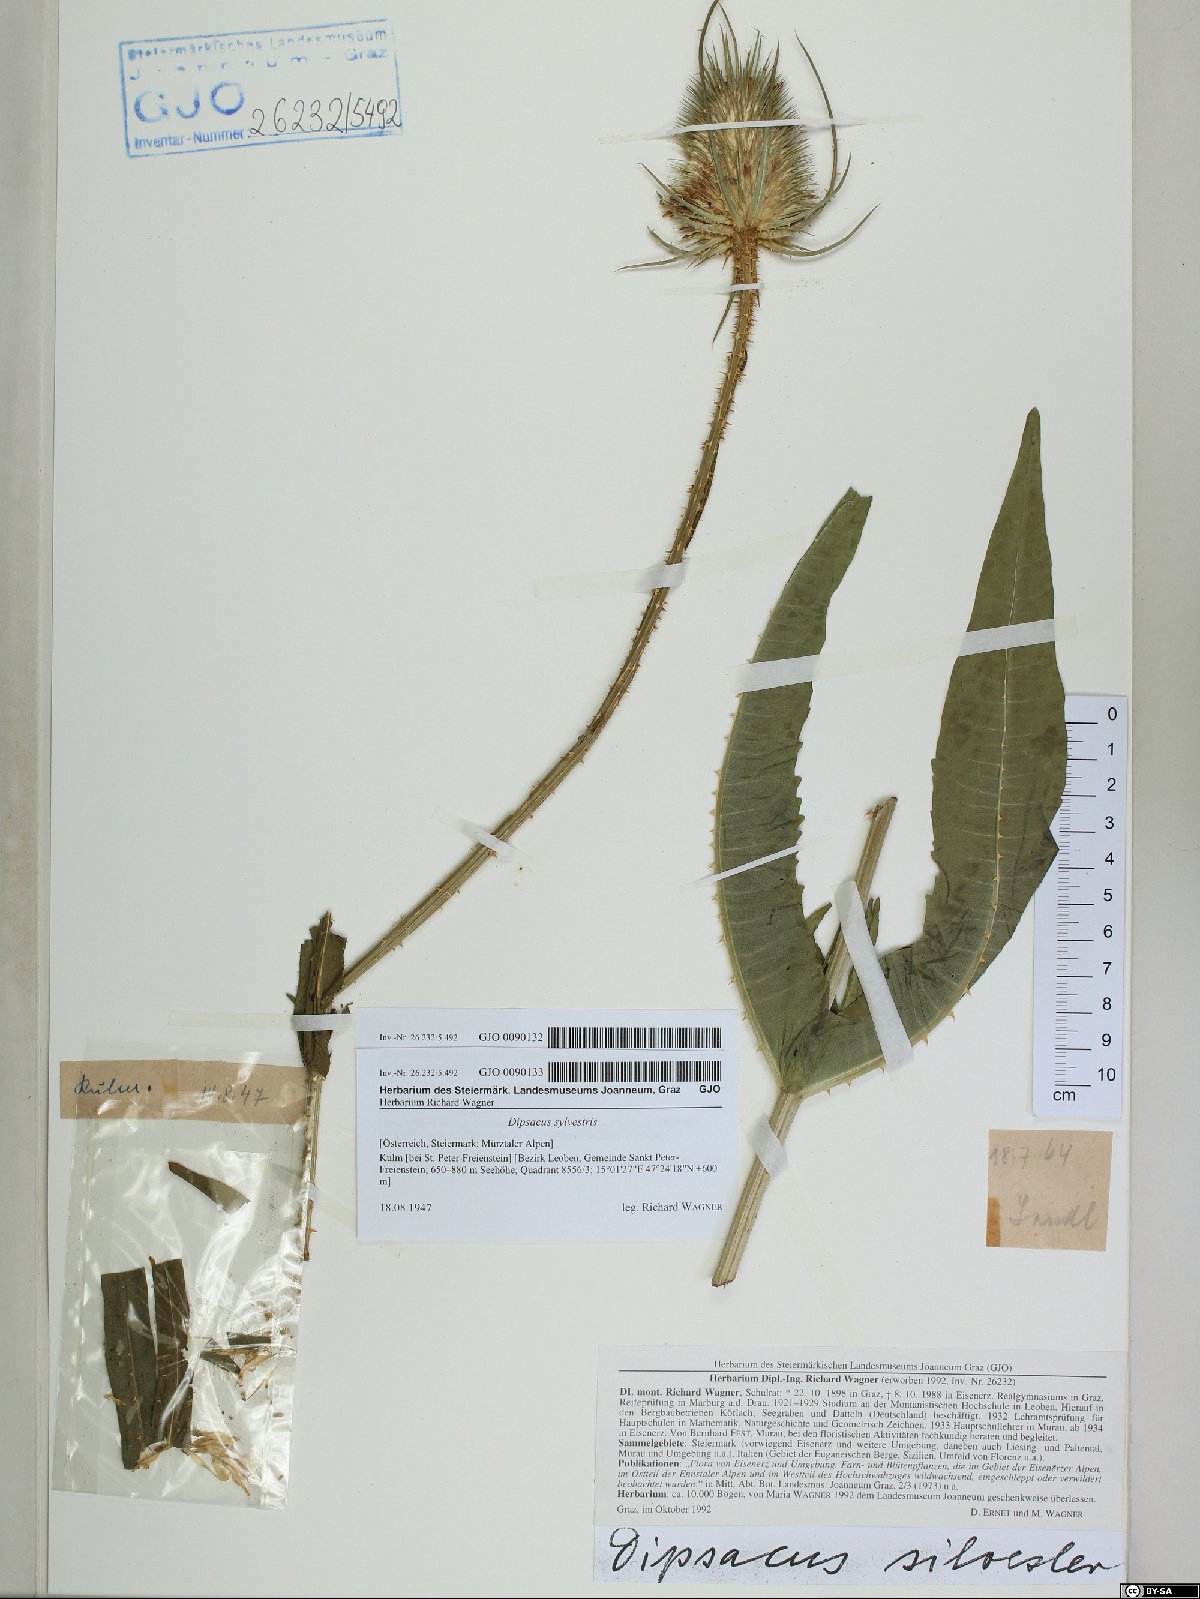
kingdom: Plantae
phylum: Tracheophyta
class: Magnoliopsida
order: Dipsacales
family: Caprifoliaceae
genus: Dipsacus
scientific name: Dipsacus fullonum
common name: Teasel
